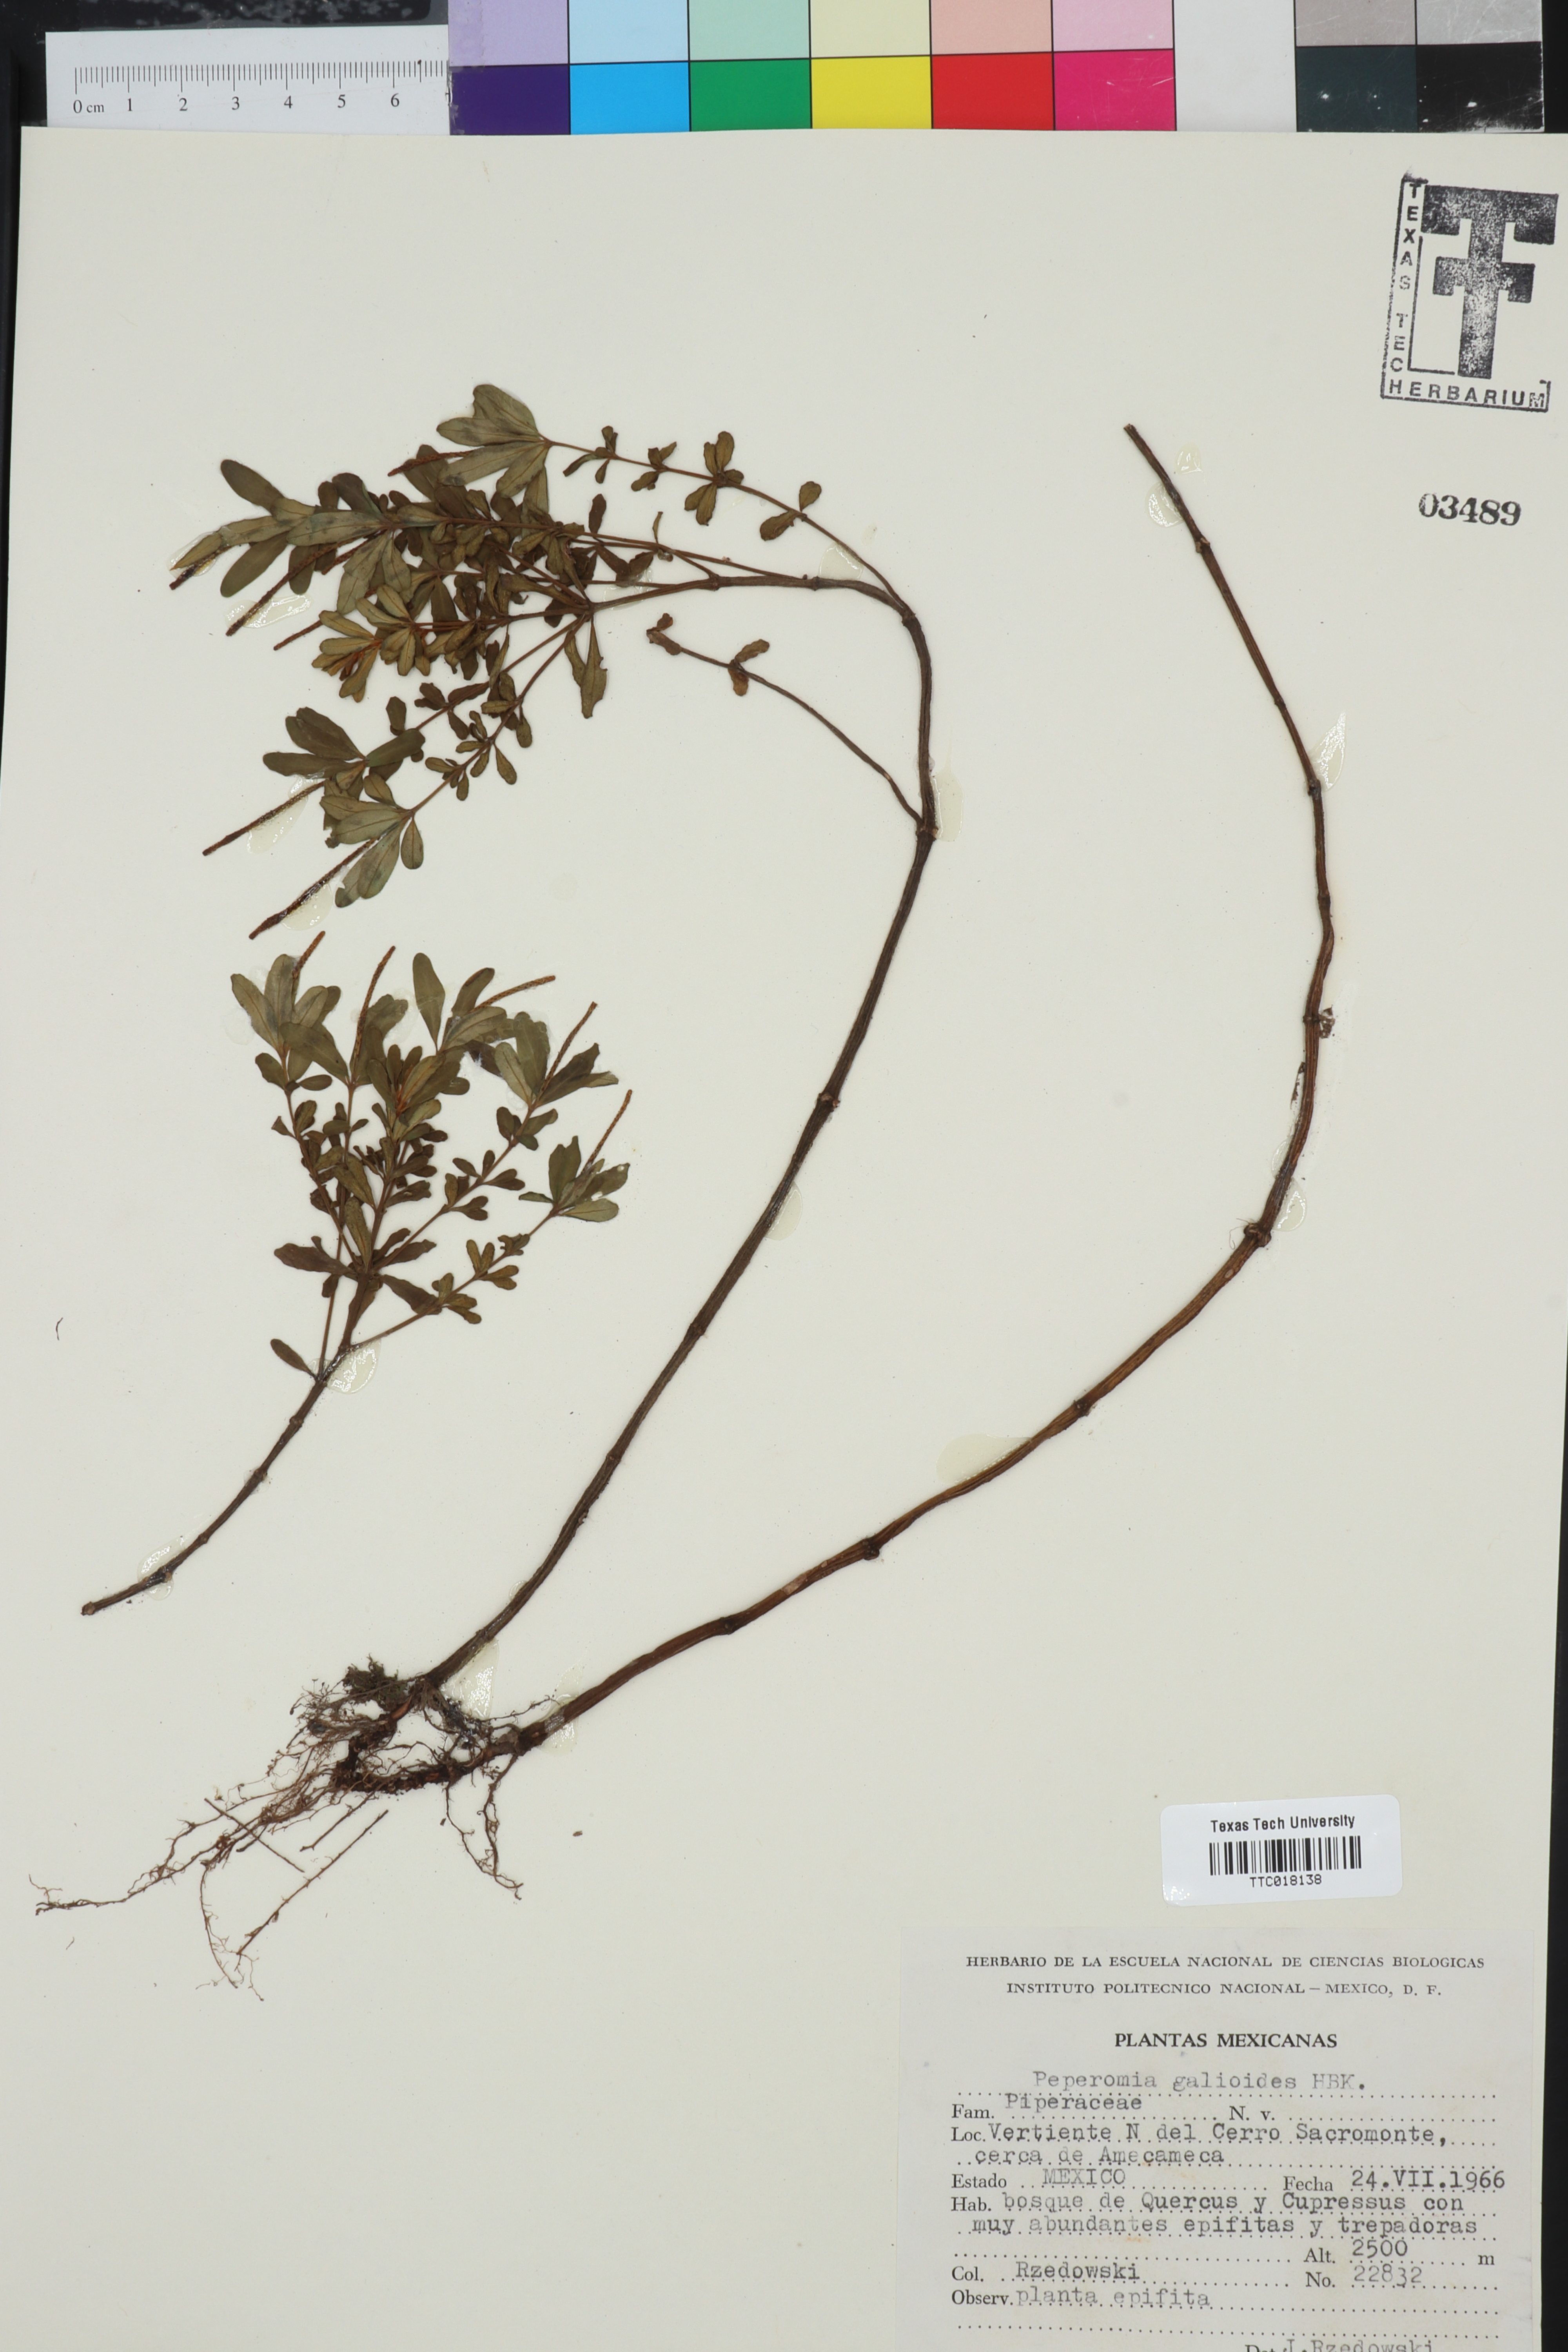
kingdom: Plantae
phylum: Tracheophyta
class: Magnoliopsida
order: Piperales
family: Piperaceae
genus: Peperomia
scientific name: Peperomia galioides
